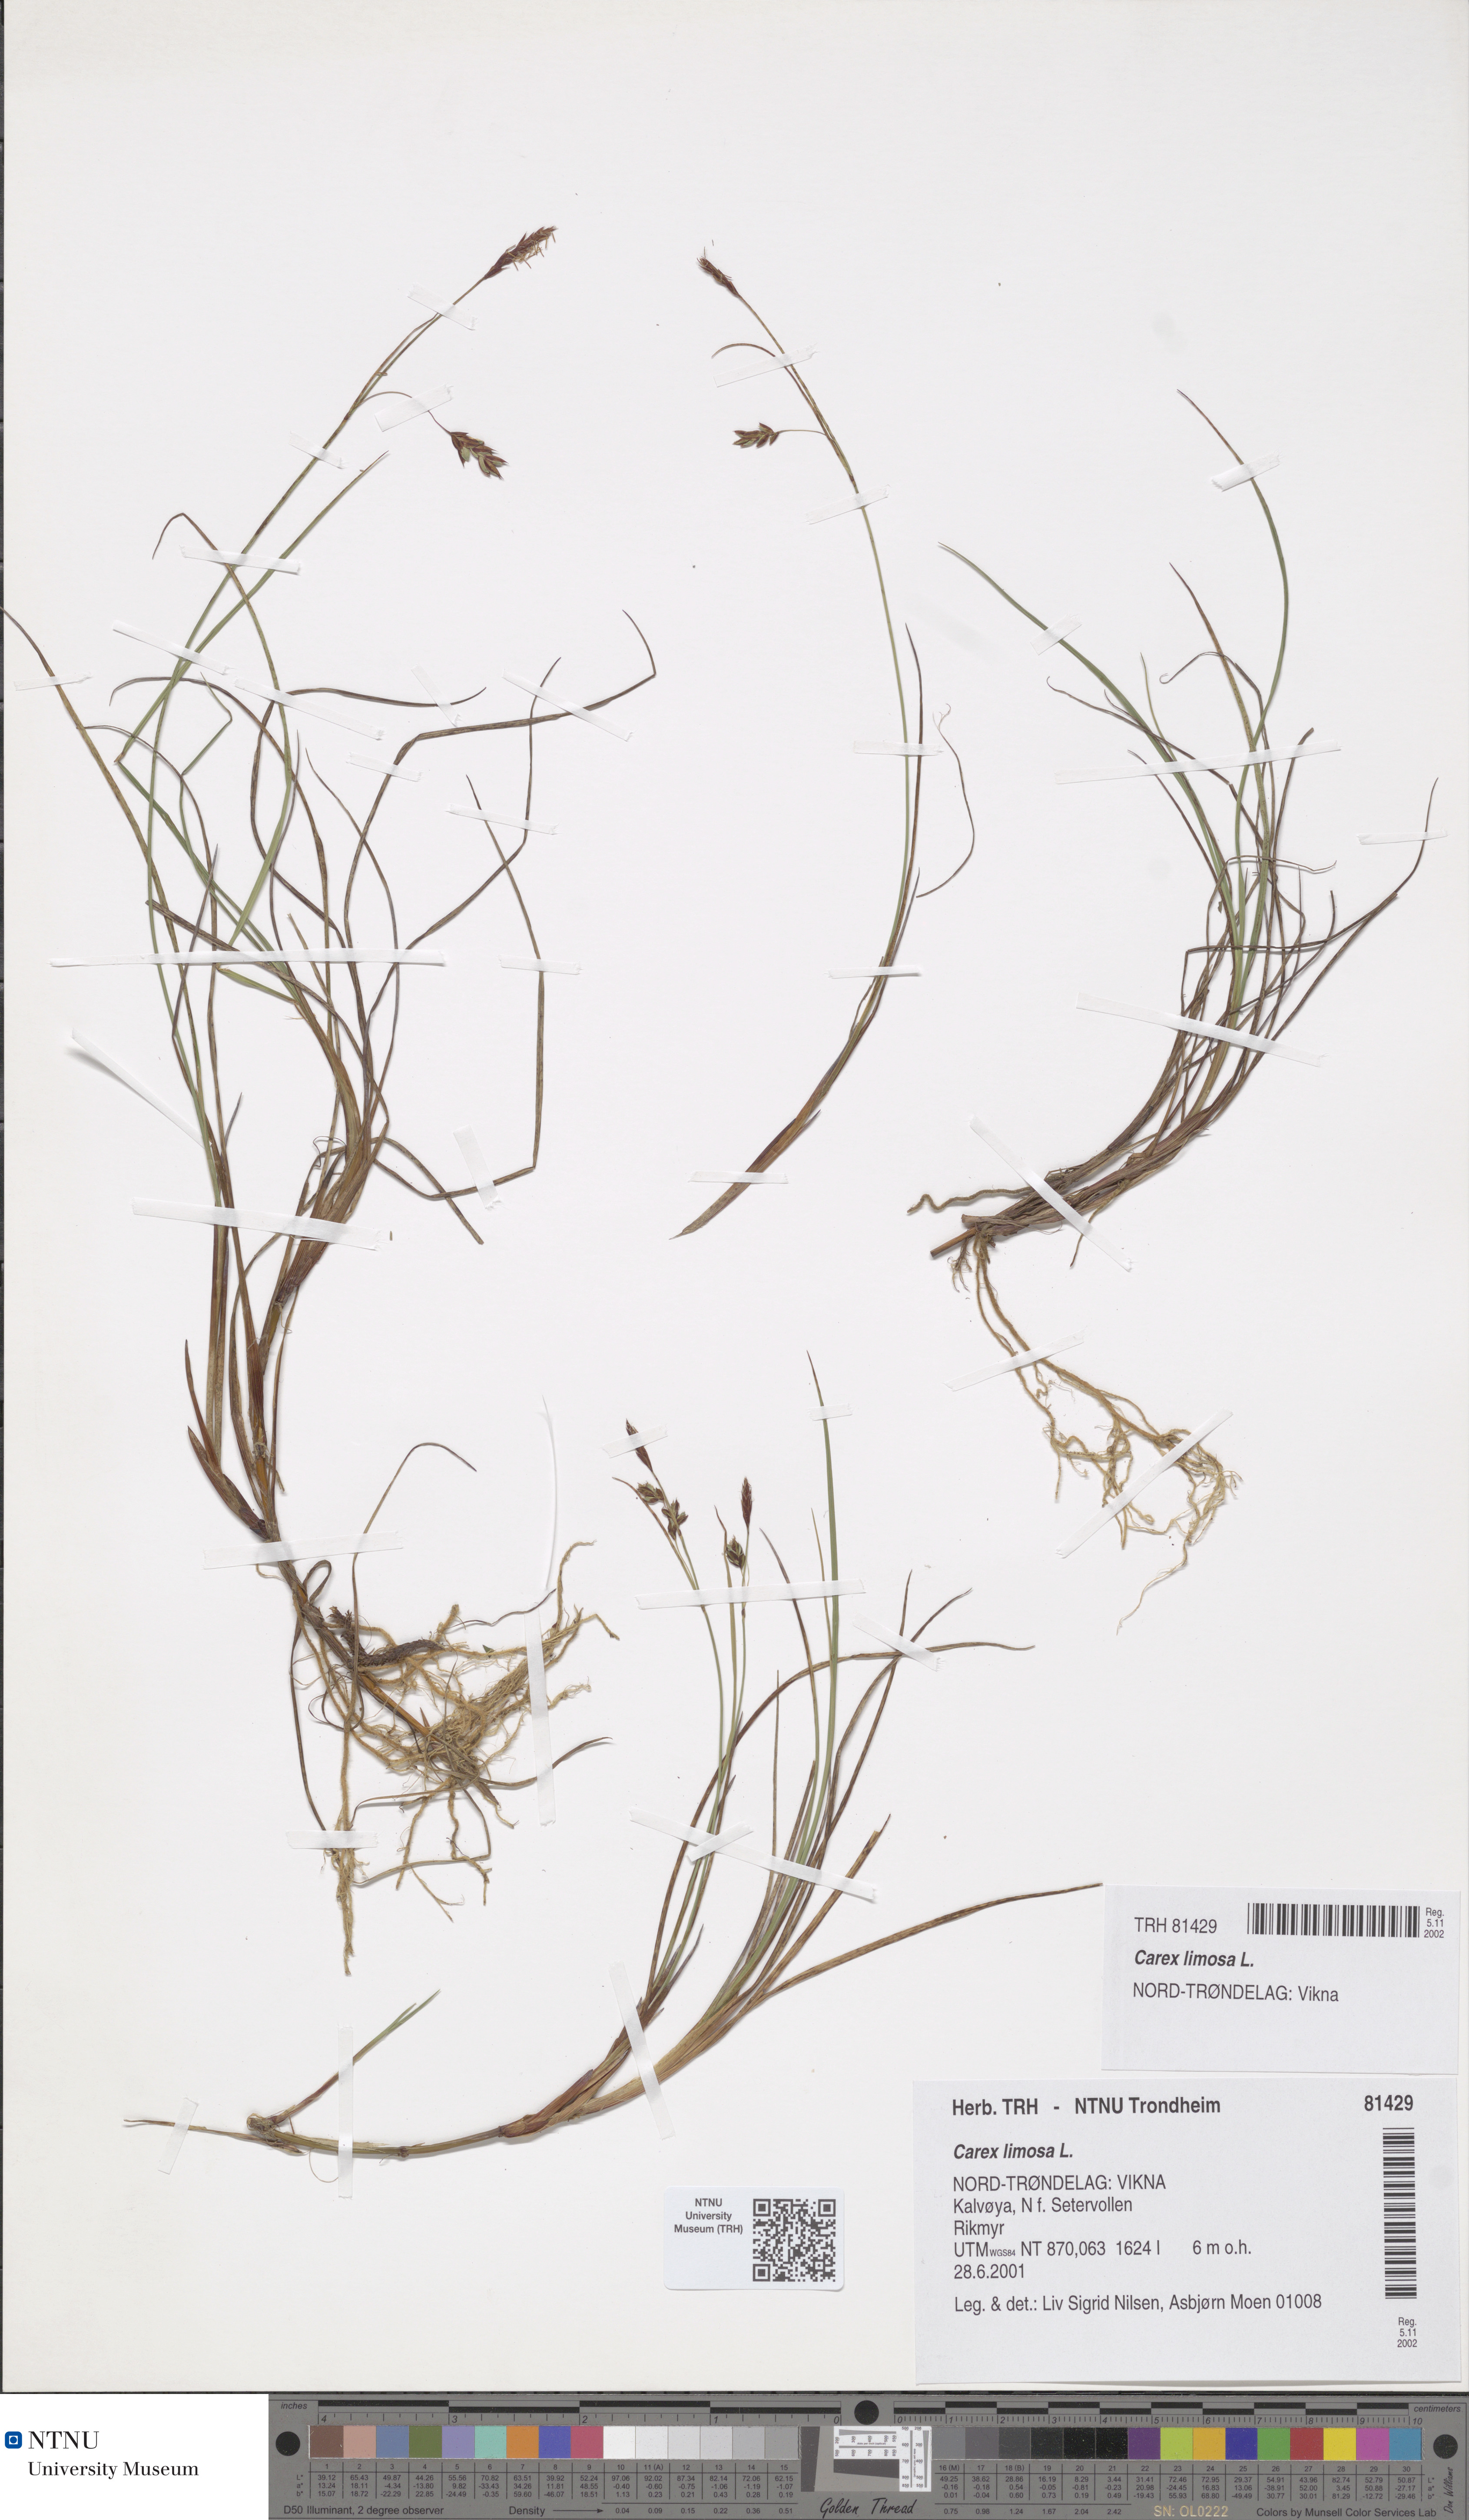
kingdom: Plantae
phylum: Tracheophyta
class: Liliopsida
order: Poales
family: Cyperaceae
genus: Carex
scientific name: Carex limosa
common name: Bog sedge
